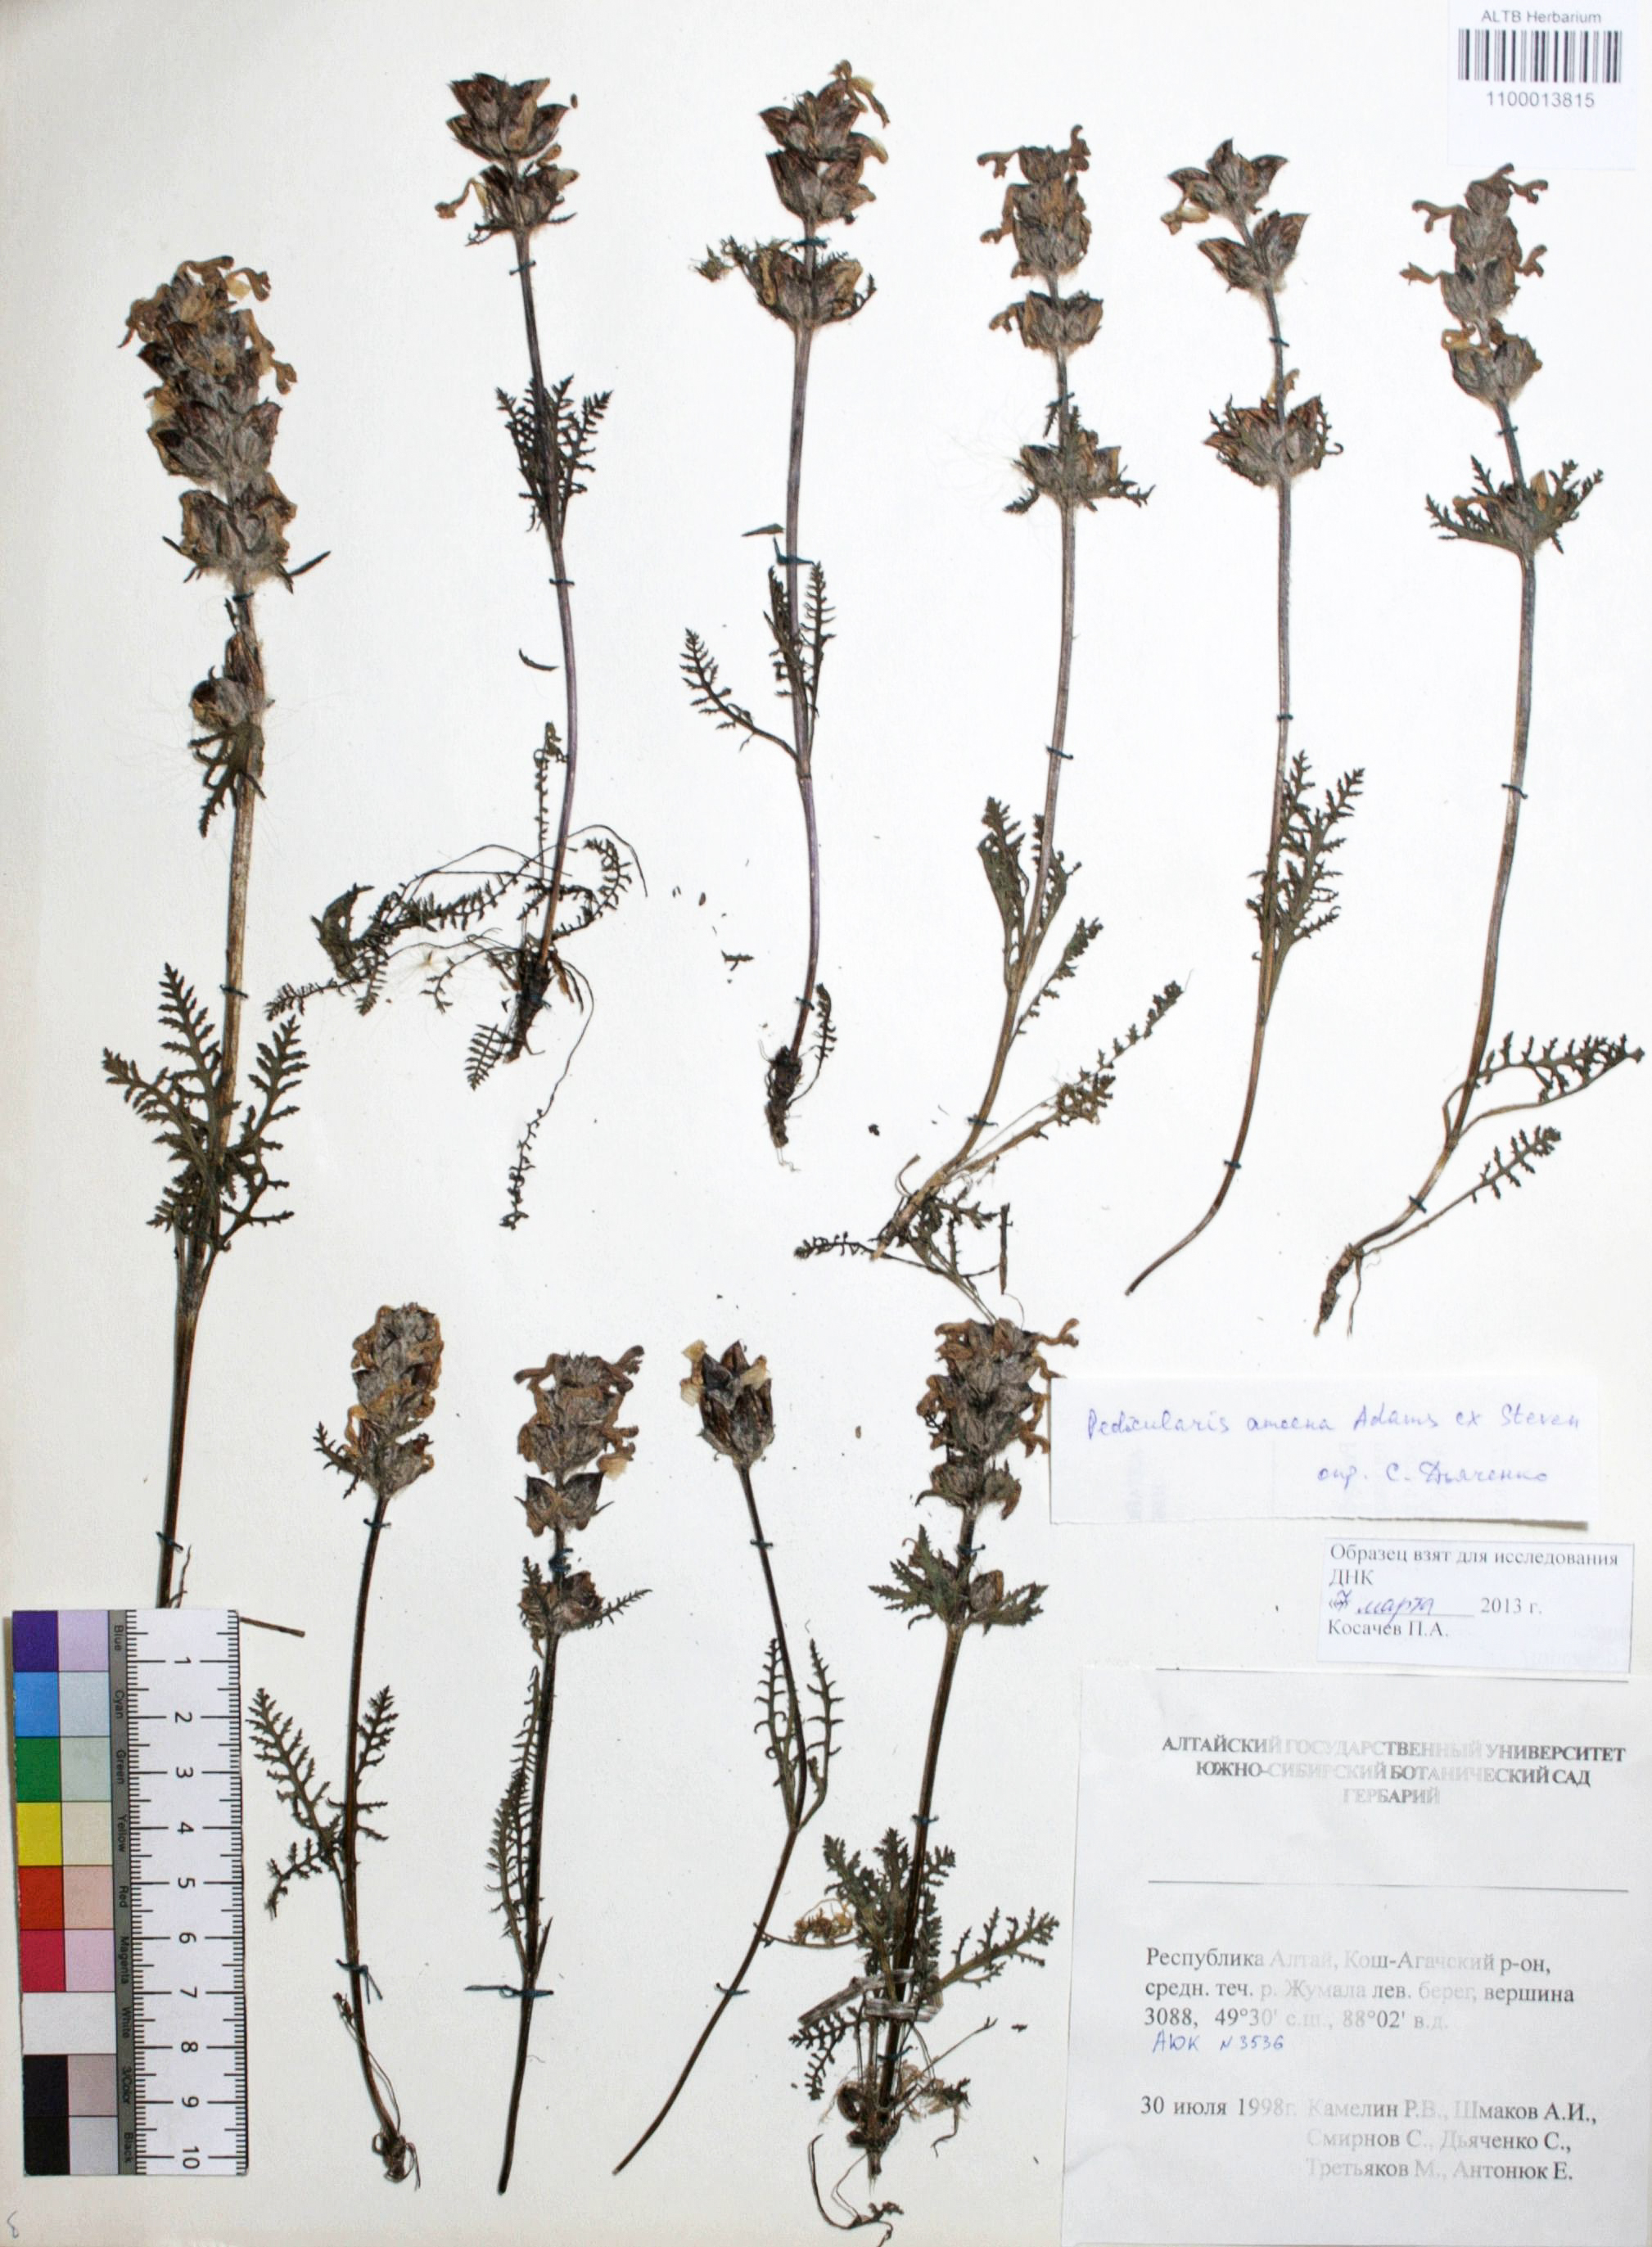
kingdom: Plantae
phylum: Tracheophyta
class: Magnoliopsida
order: Lamiales
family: Orobanchaceae
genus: Pedicularis
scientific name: Pedicularis amoena
